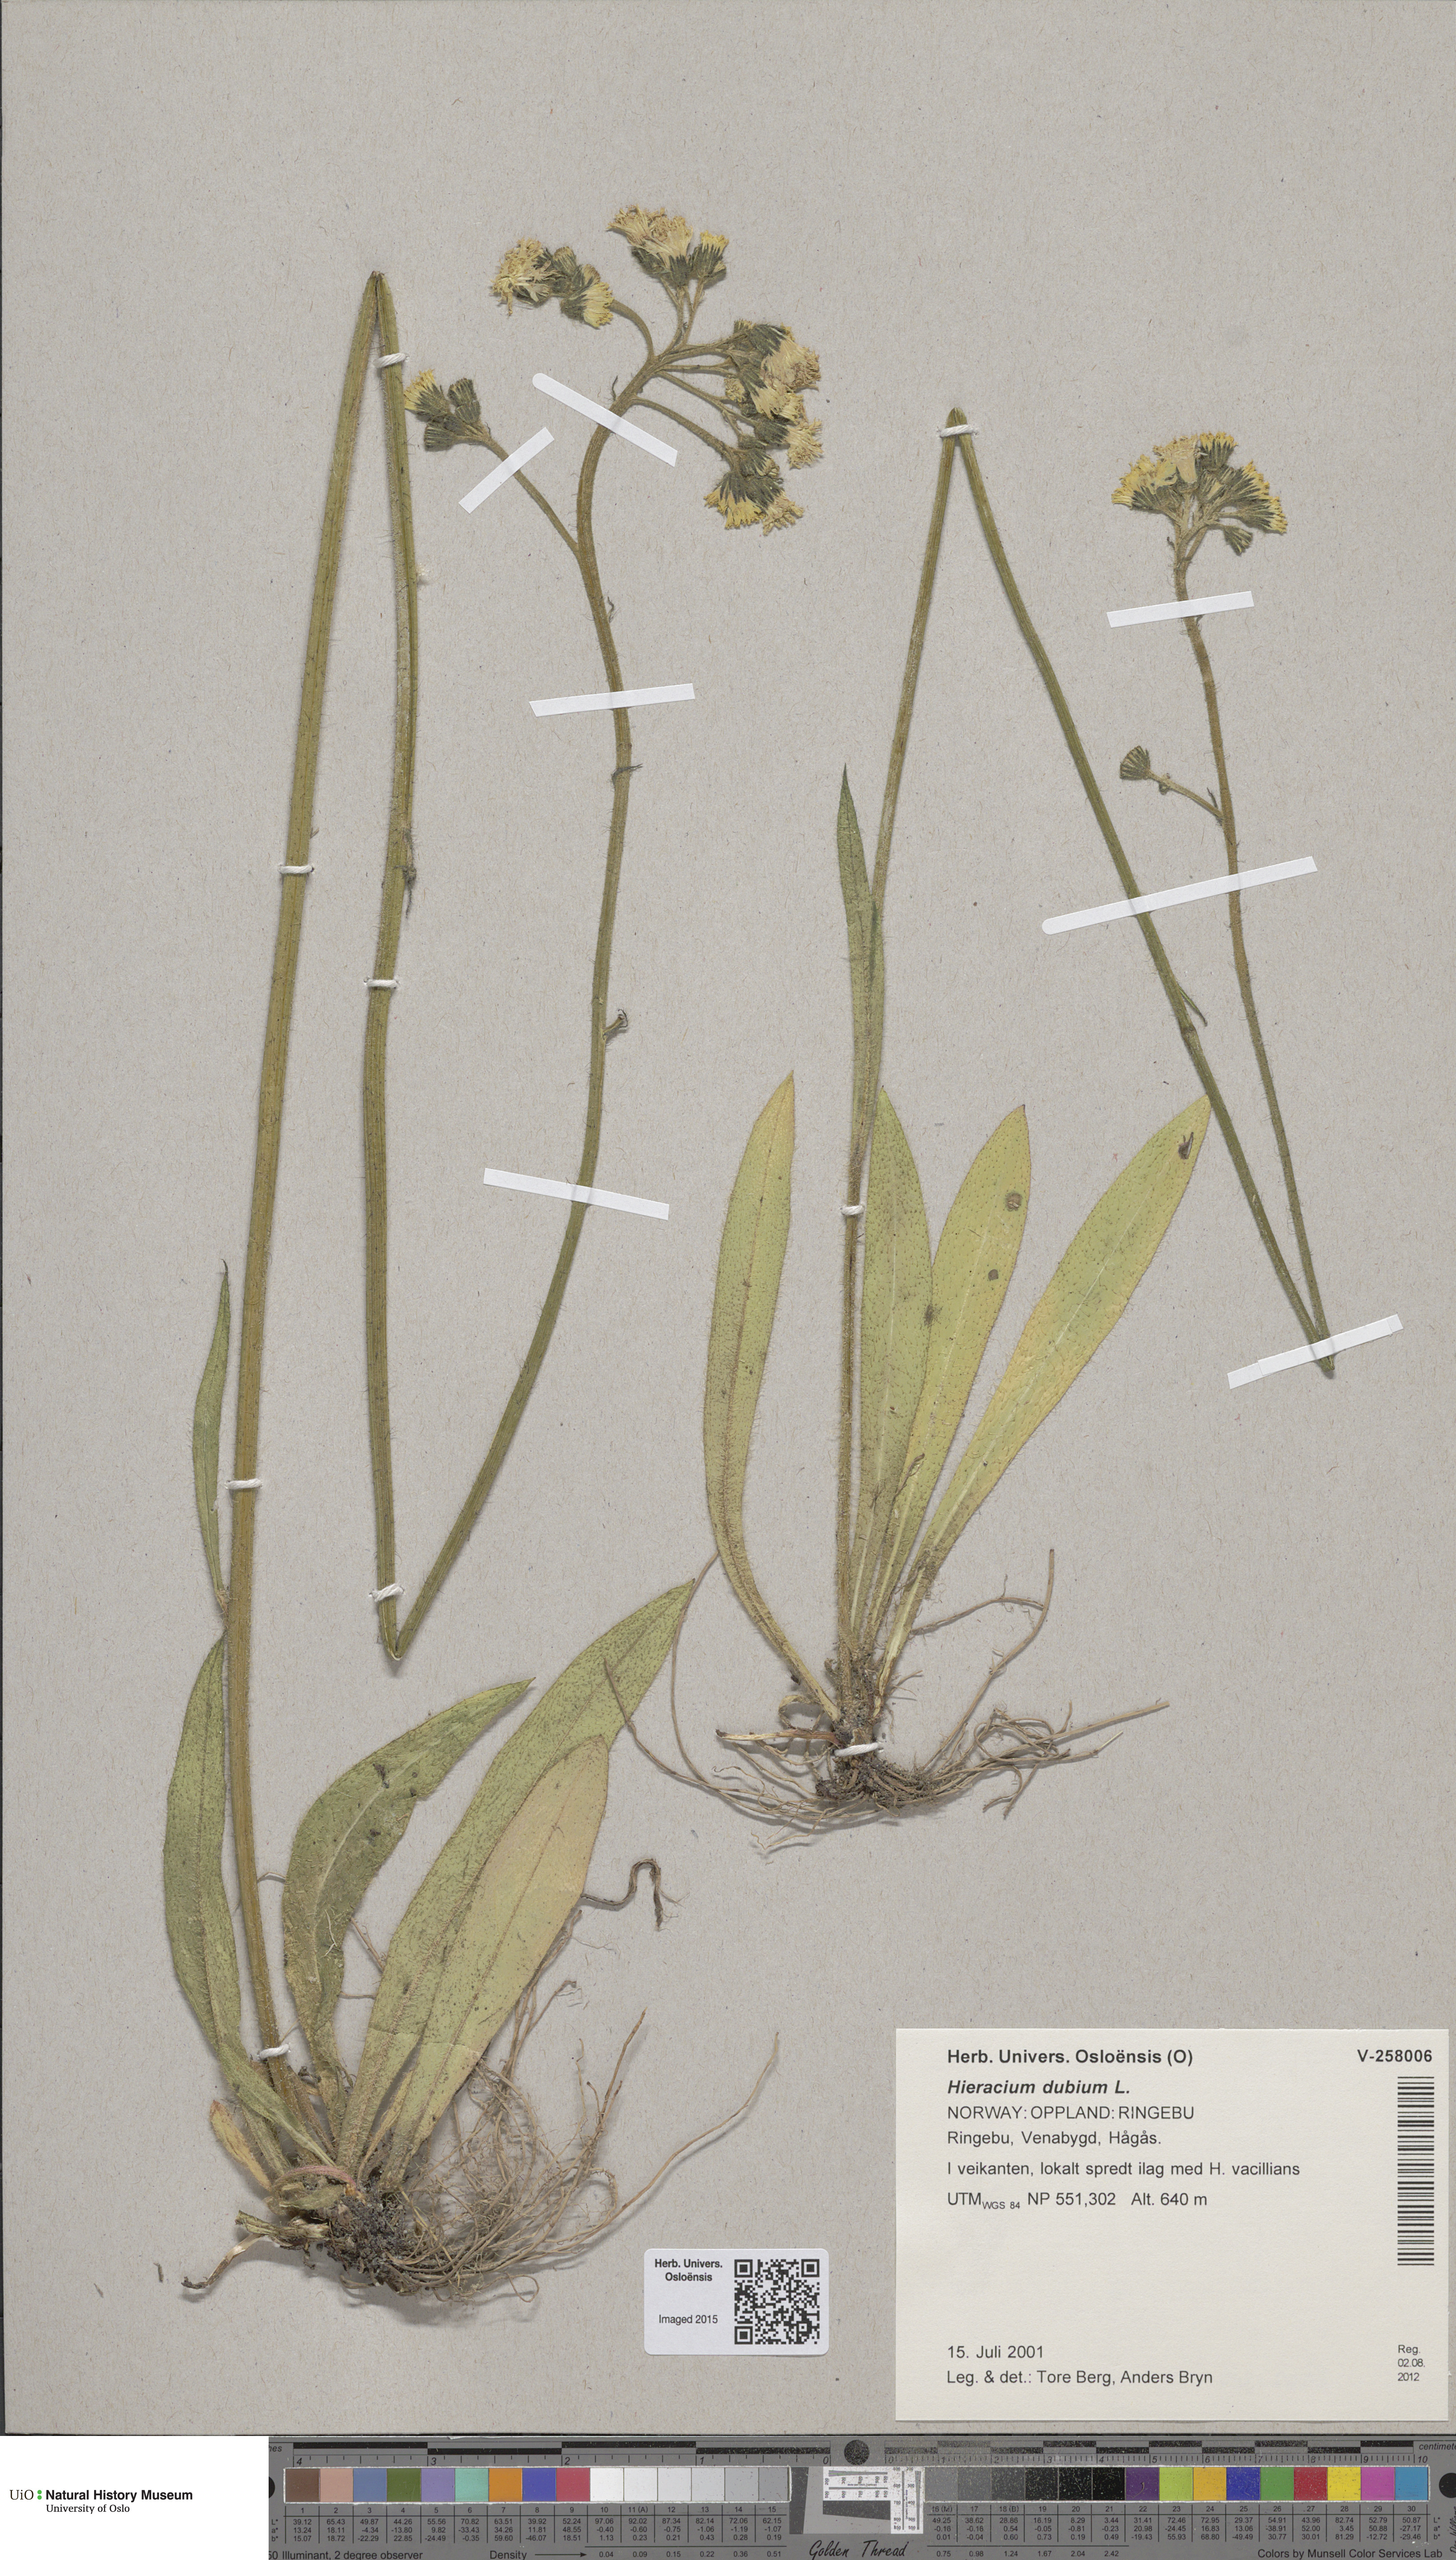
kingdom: Plantae
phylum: Tracheophyta
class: Magnoliopsida
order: Asterales
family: Asteraceae
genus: Pilosella
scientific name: Pilosella dubia
